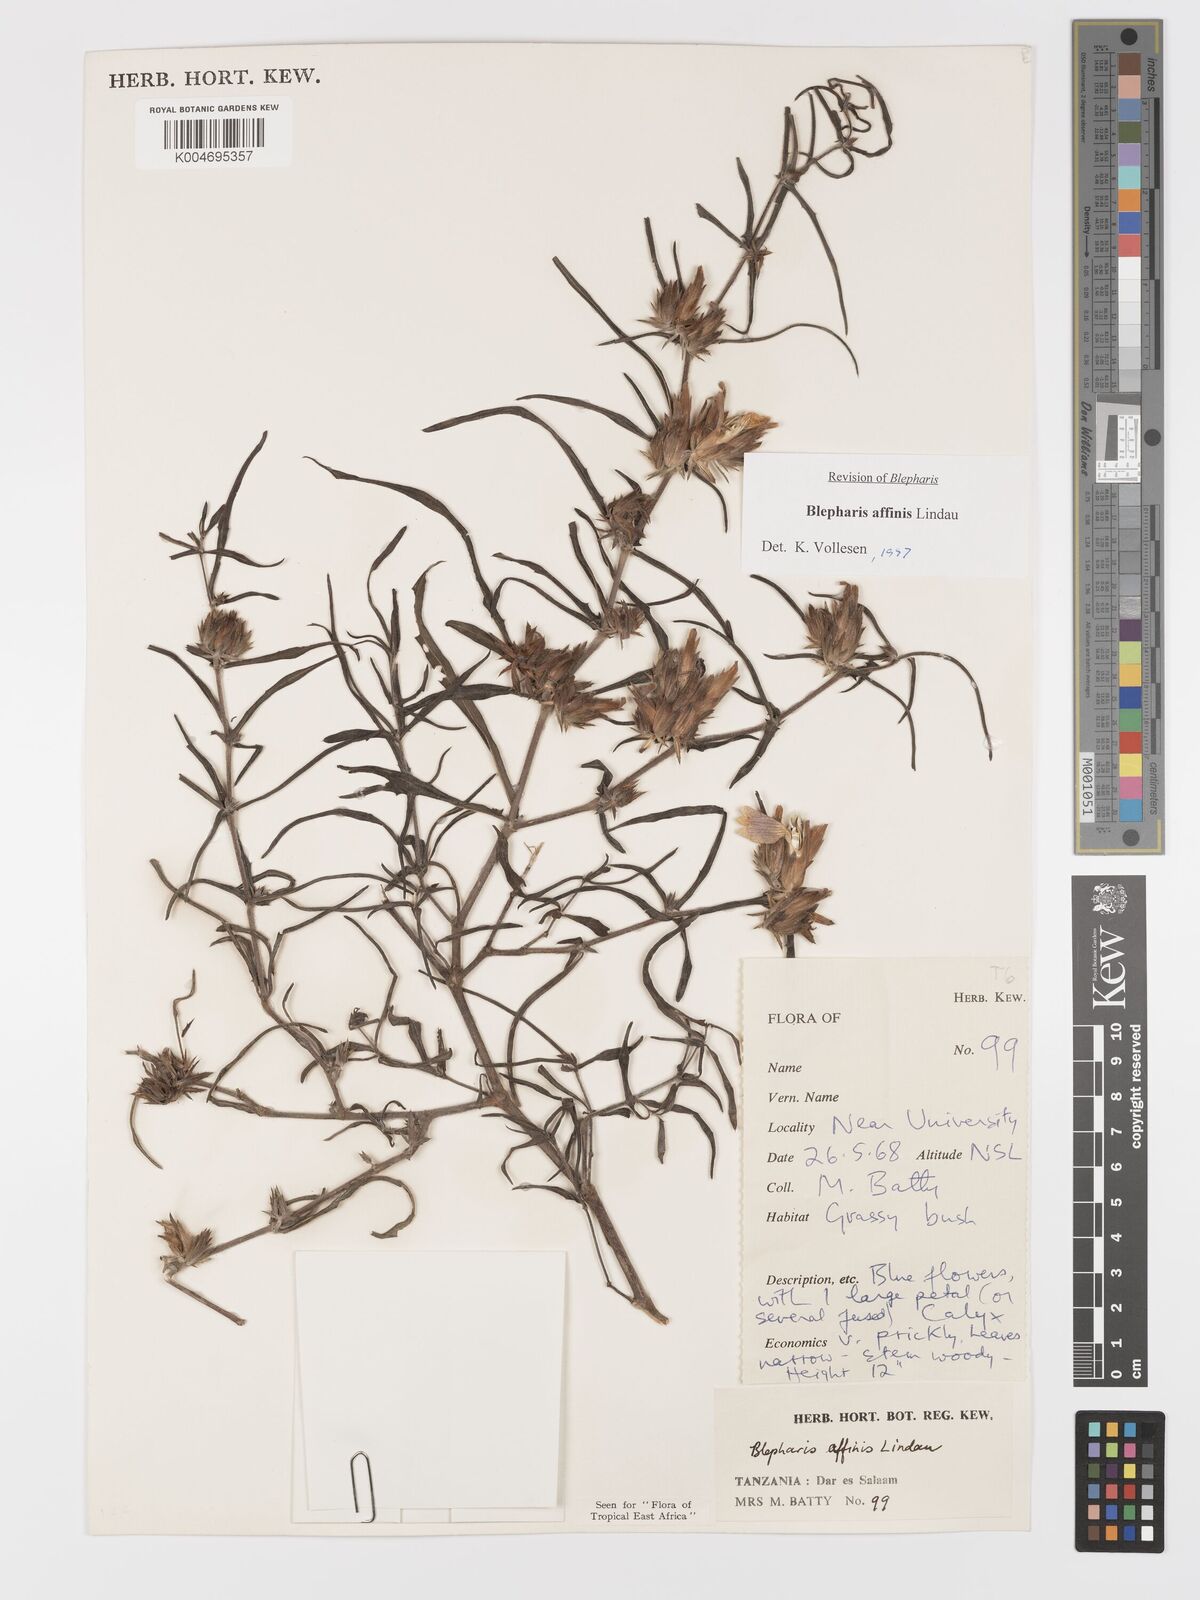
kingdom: Plantae
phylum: Tracheophyta
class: Magnoliopsida
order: Lamiales
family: Acanthaceae
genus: Blepharis
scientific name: Blepharis affinis
